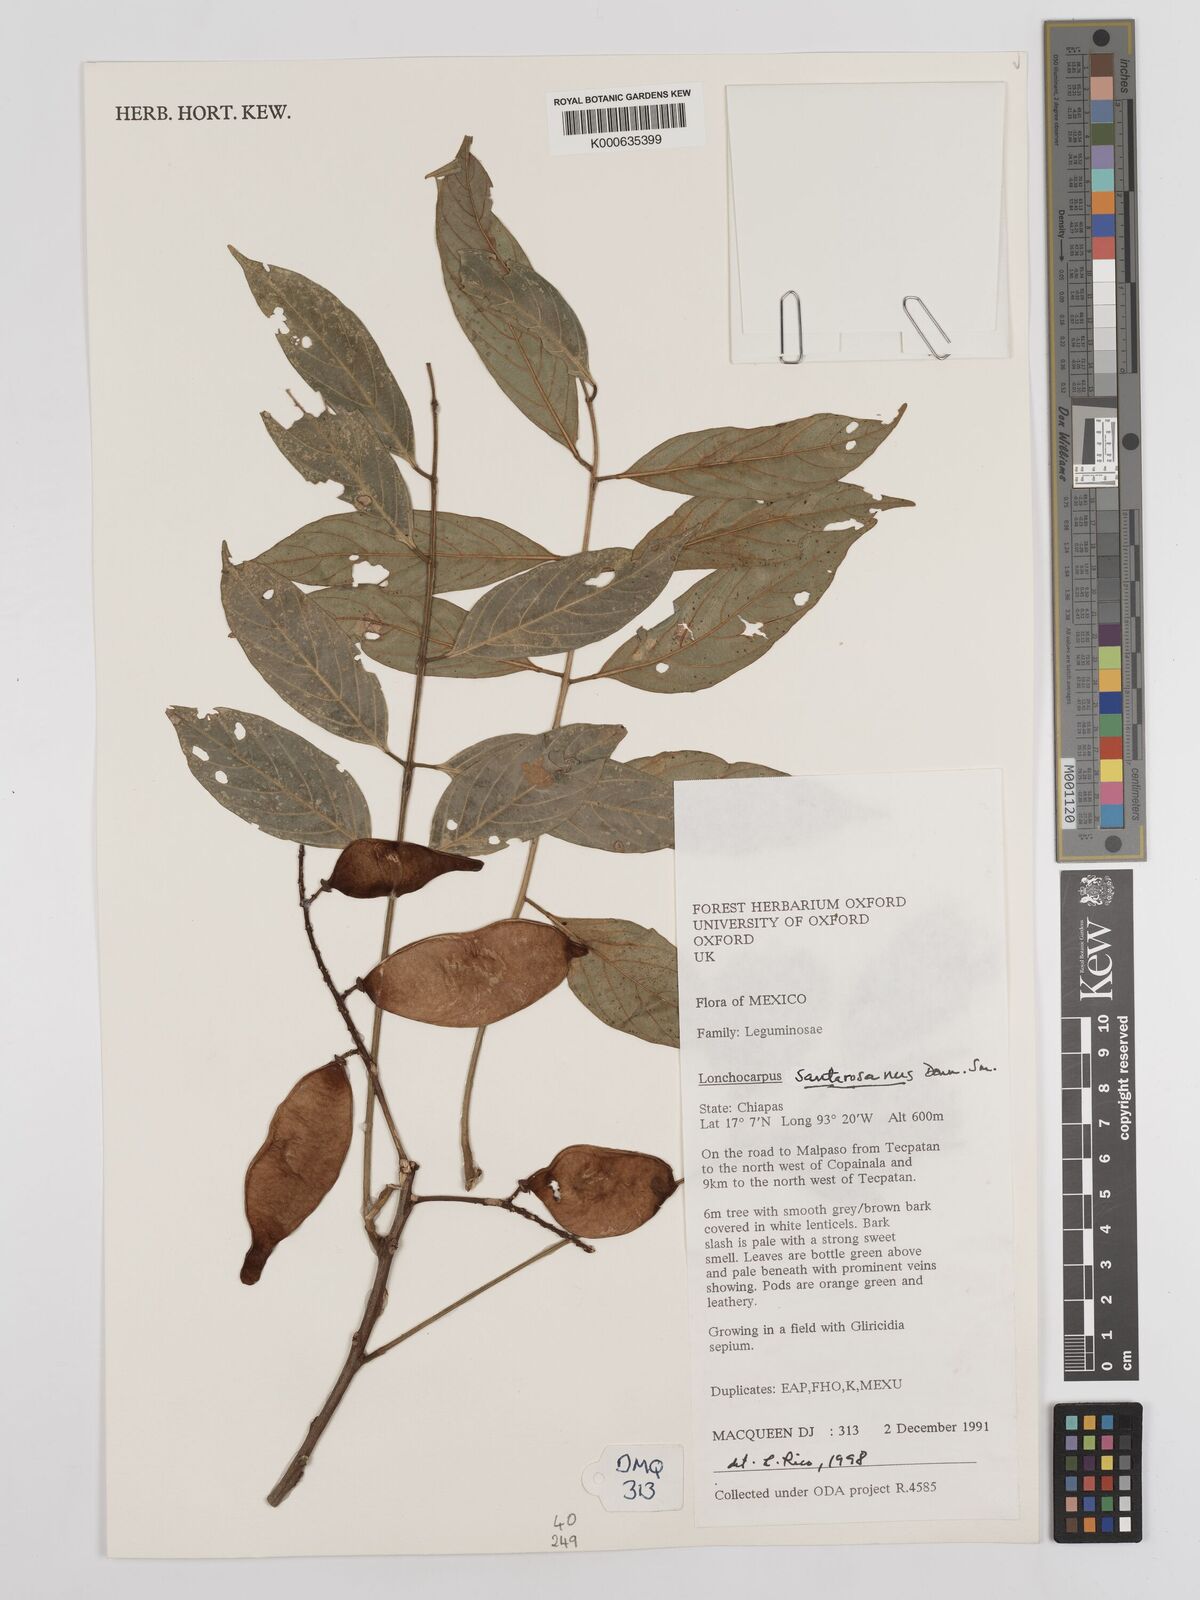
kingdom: Plantae
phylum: Tracheophyta
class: Magnoliopsida
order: Fabales
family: Fabaceae
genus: Lonchocarpus
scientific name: Lonchocarpus santarosanus
